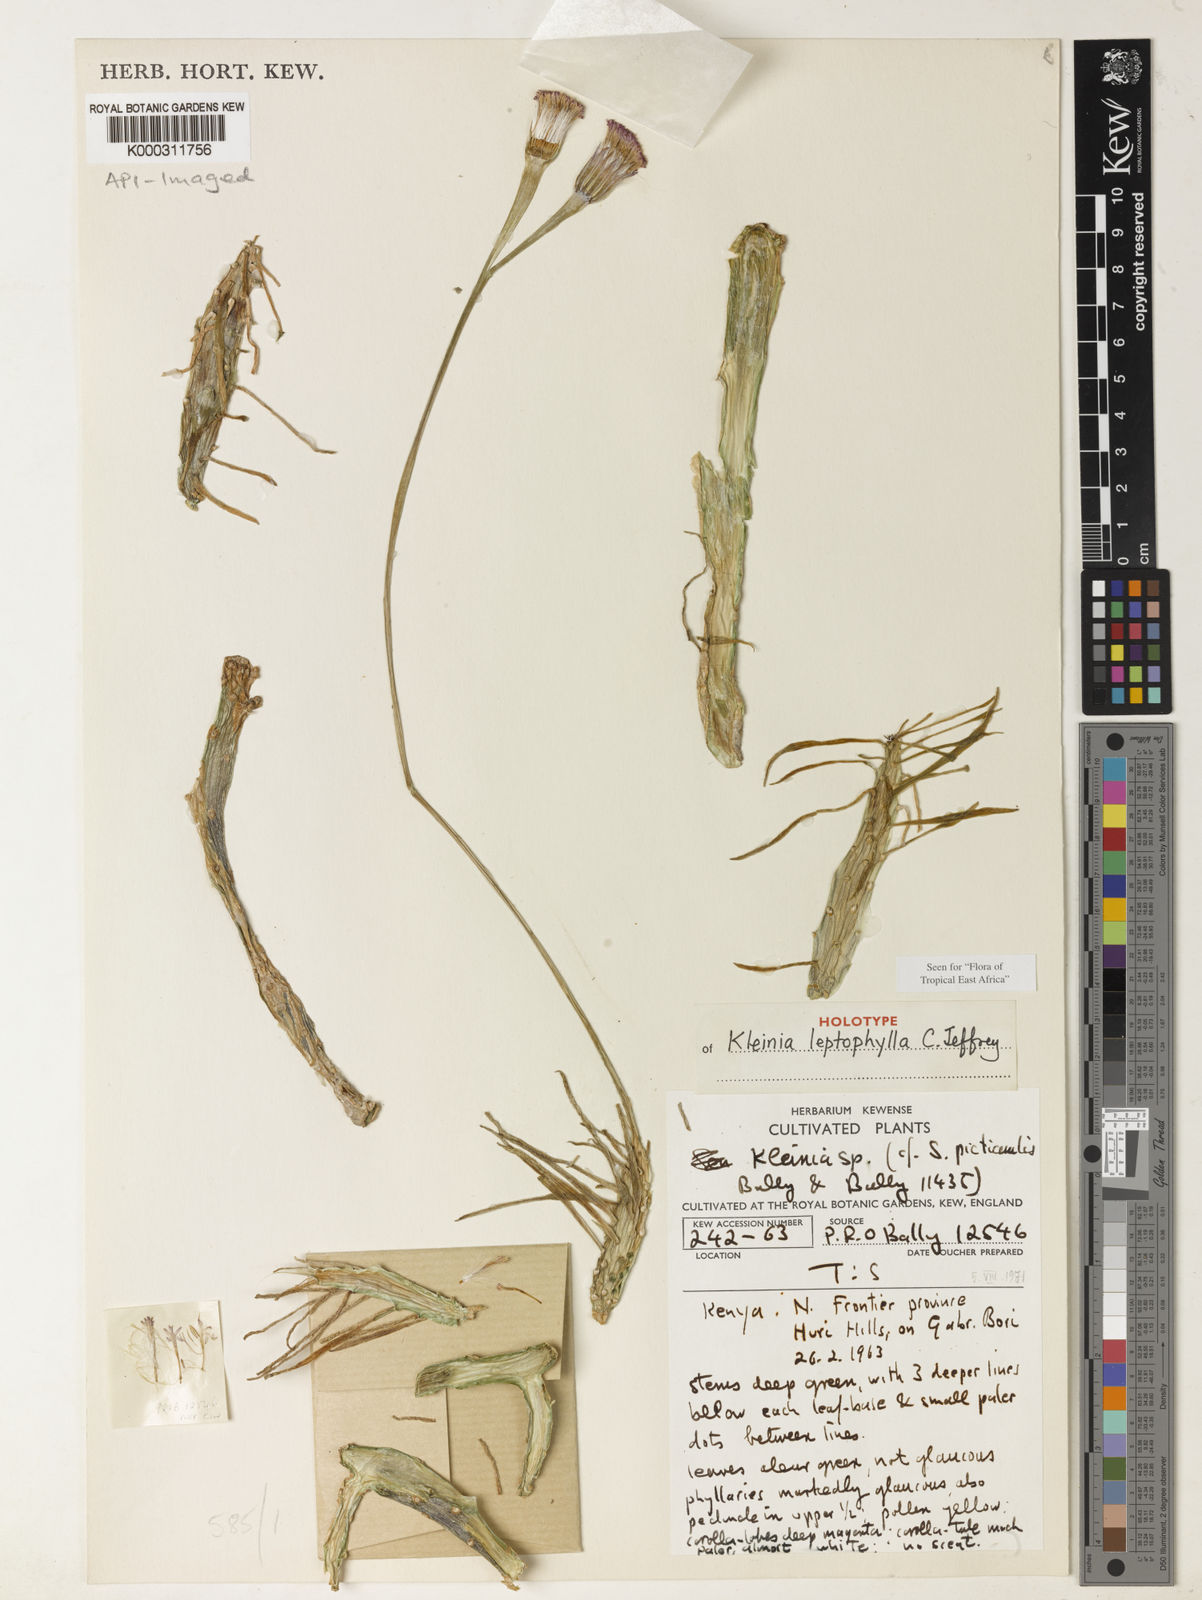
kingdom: Plantae
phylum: Tracheophyta
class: Magnoliopsida
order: Asterales
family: Asteraceae
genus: Kleinia
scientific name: Kleinia leptophylla
